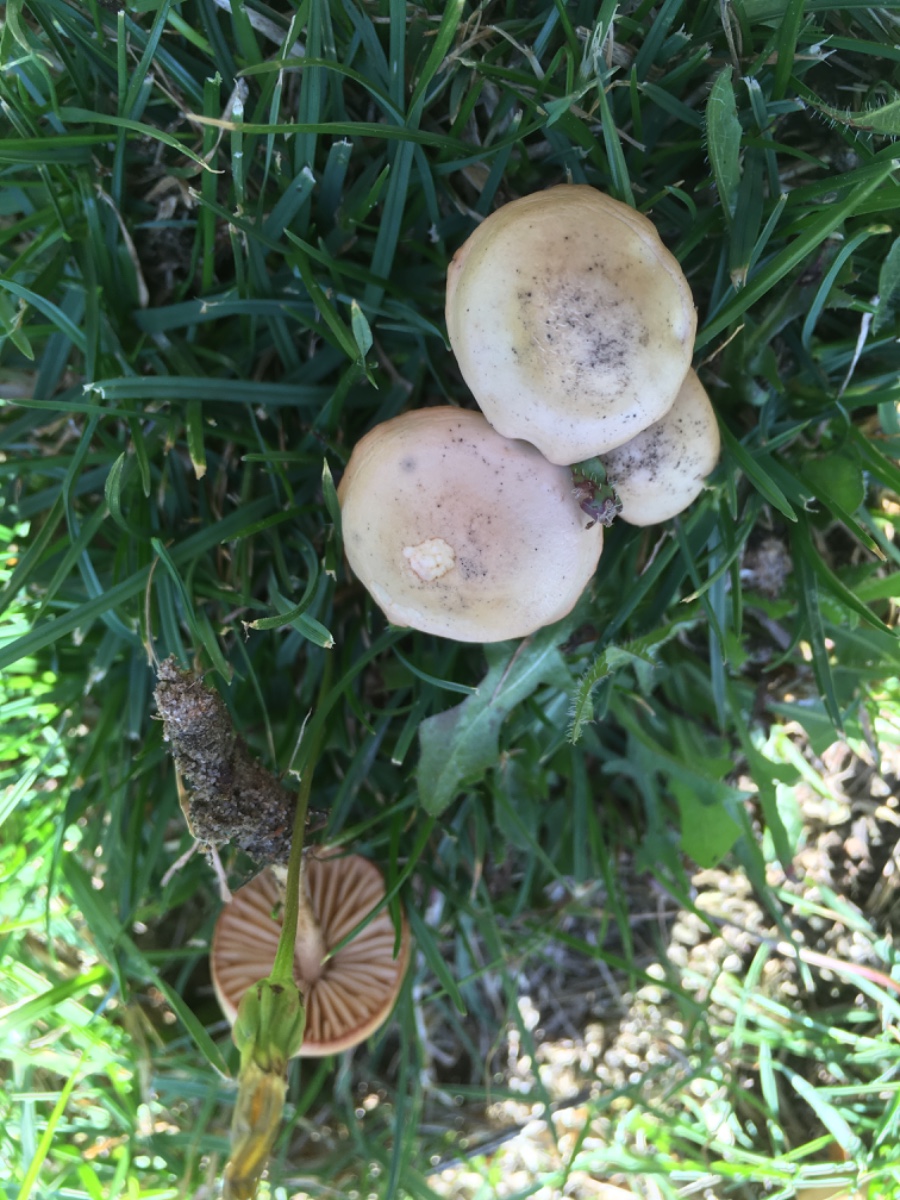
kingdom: Fungi
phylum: Basidiomycota
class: Agaricomycetes
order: Agaricales
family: Marasmiaceae
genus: Marasmius
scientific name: Marasmius oreades
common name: elledans-bruskhat
